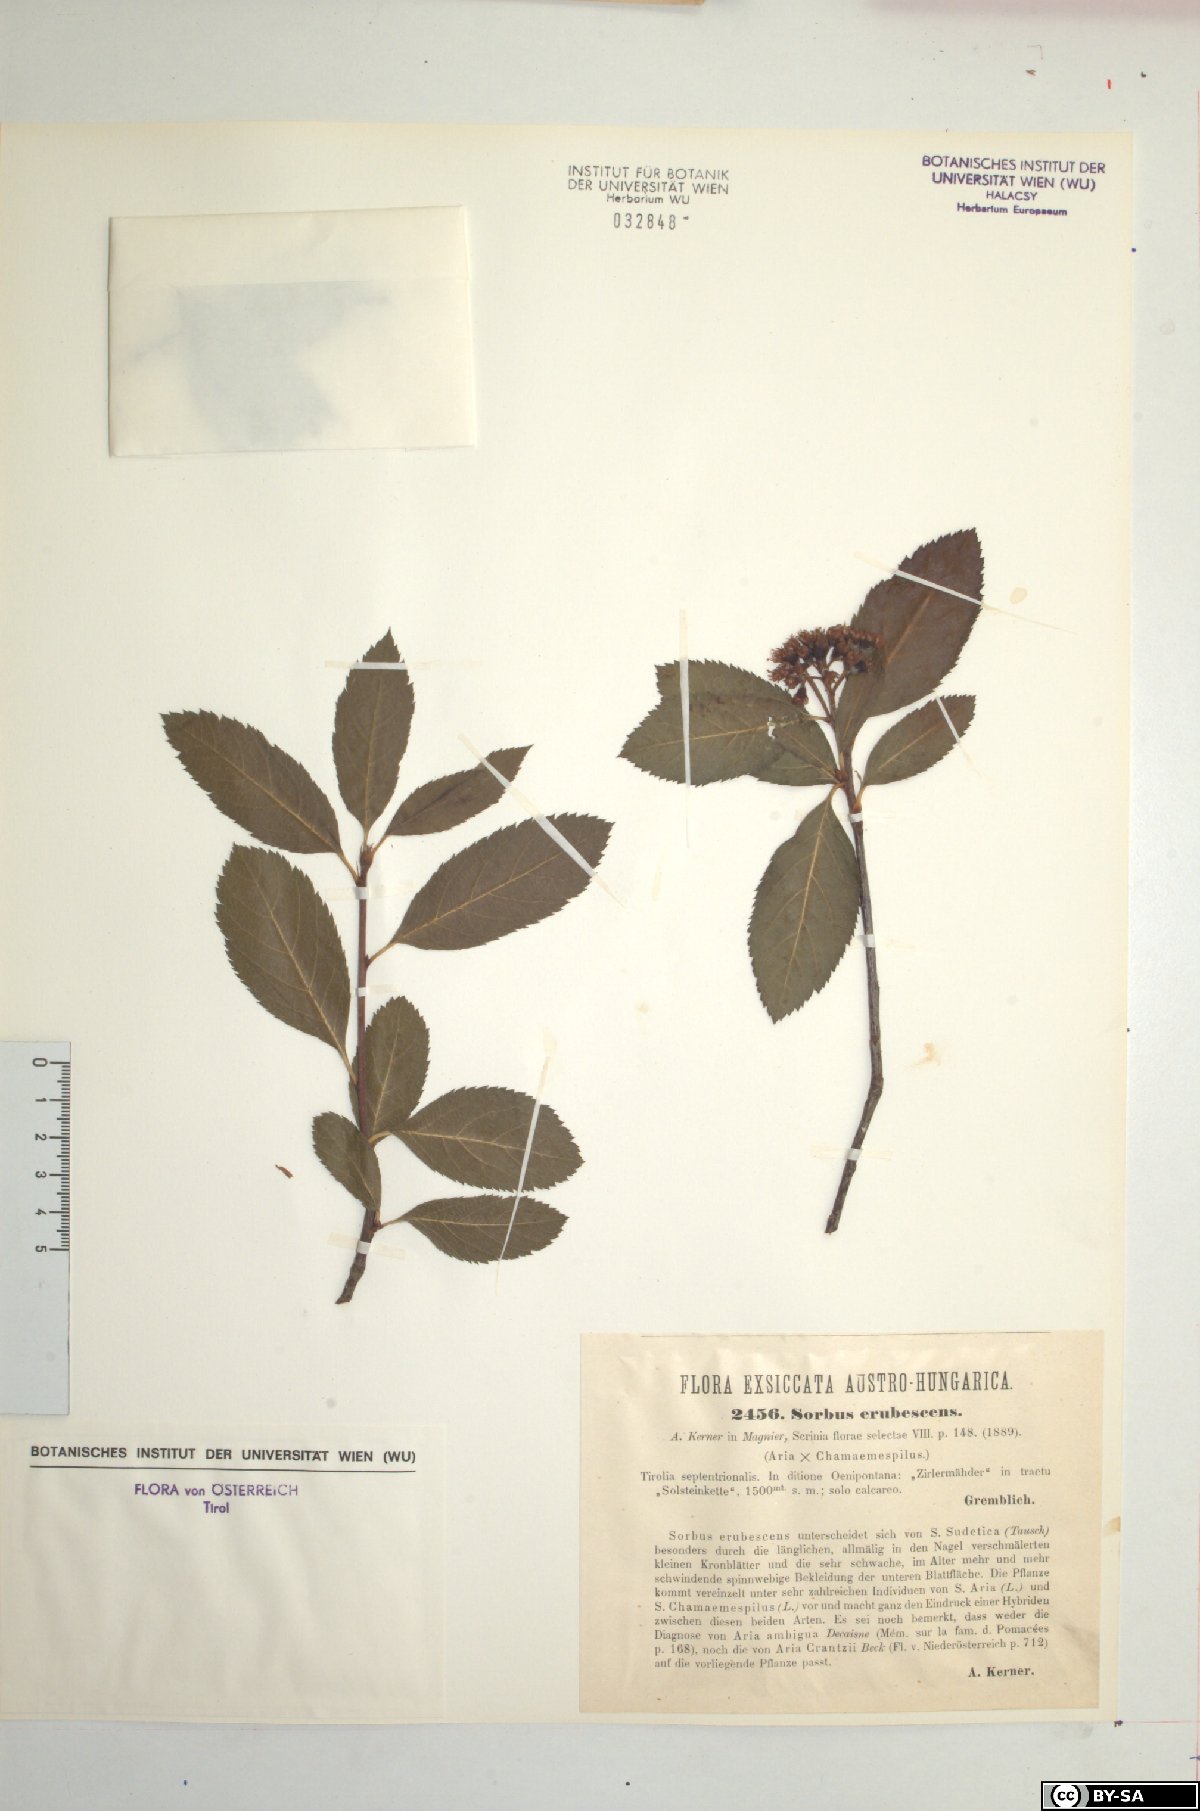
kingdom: Plantae
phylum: Tracheophyta
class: Magnoliopsida
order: Rosales
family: Rosaceae
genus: Majovskya
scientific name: Majovskya sudetica
